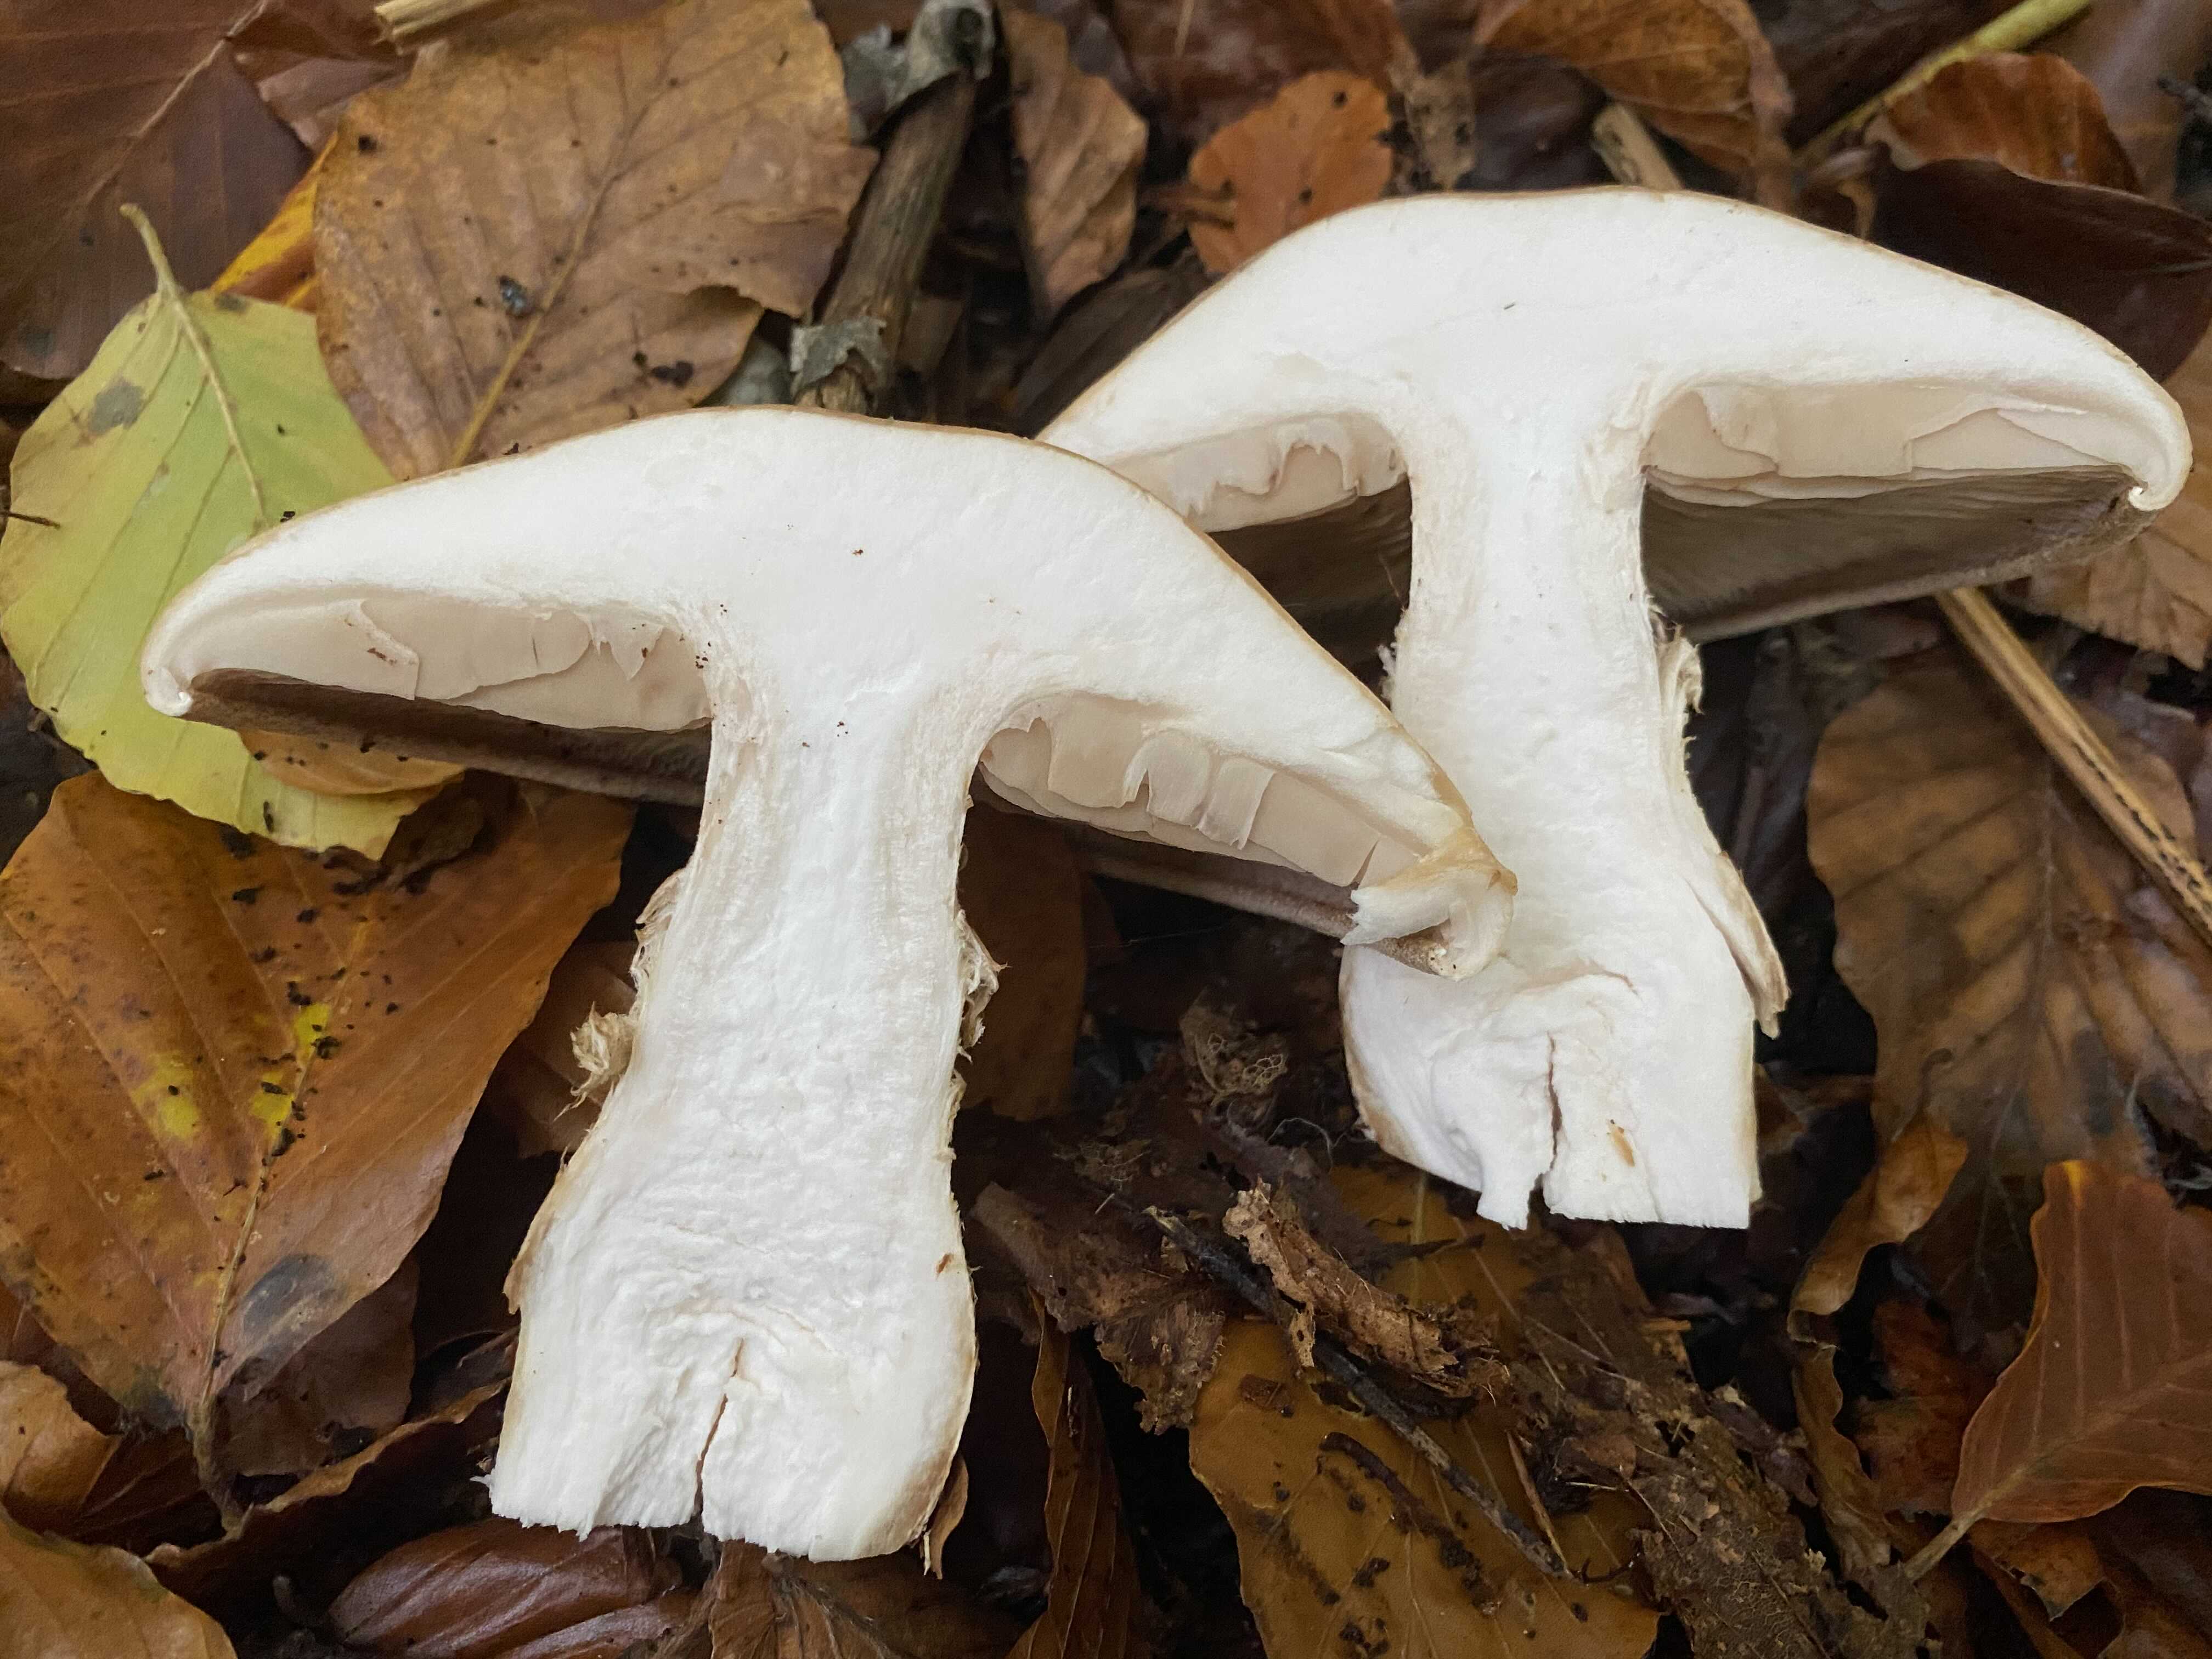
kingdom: Fungi
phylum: Basidiomycota
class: Agaricomycetes
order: Agaricales
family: Hymenogastraceae
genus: Hebeloma
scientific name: Hebeloma radicosum
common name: pælerods-tåreblad
